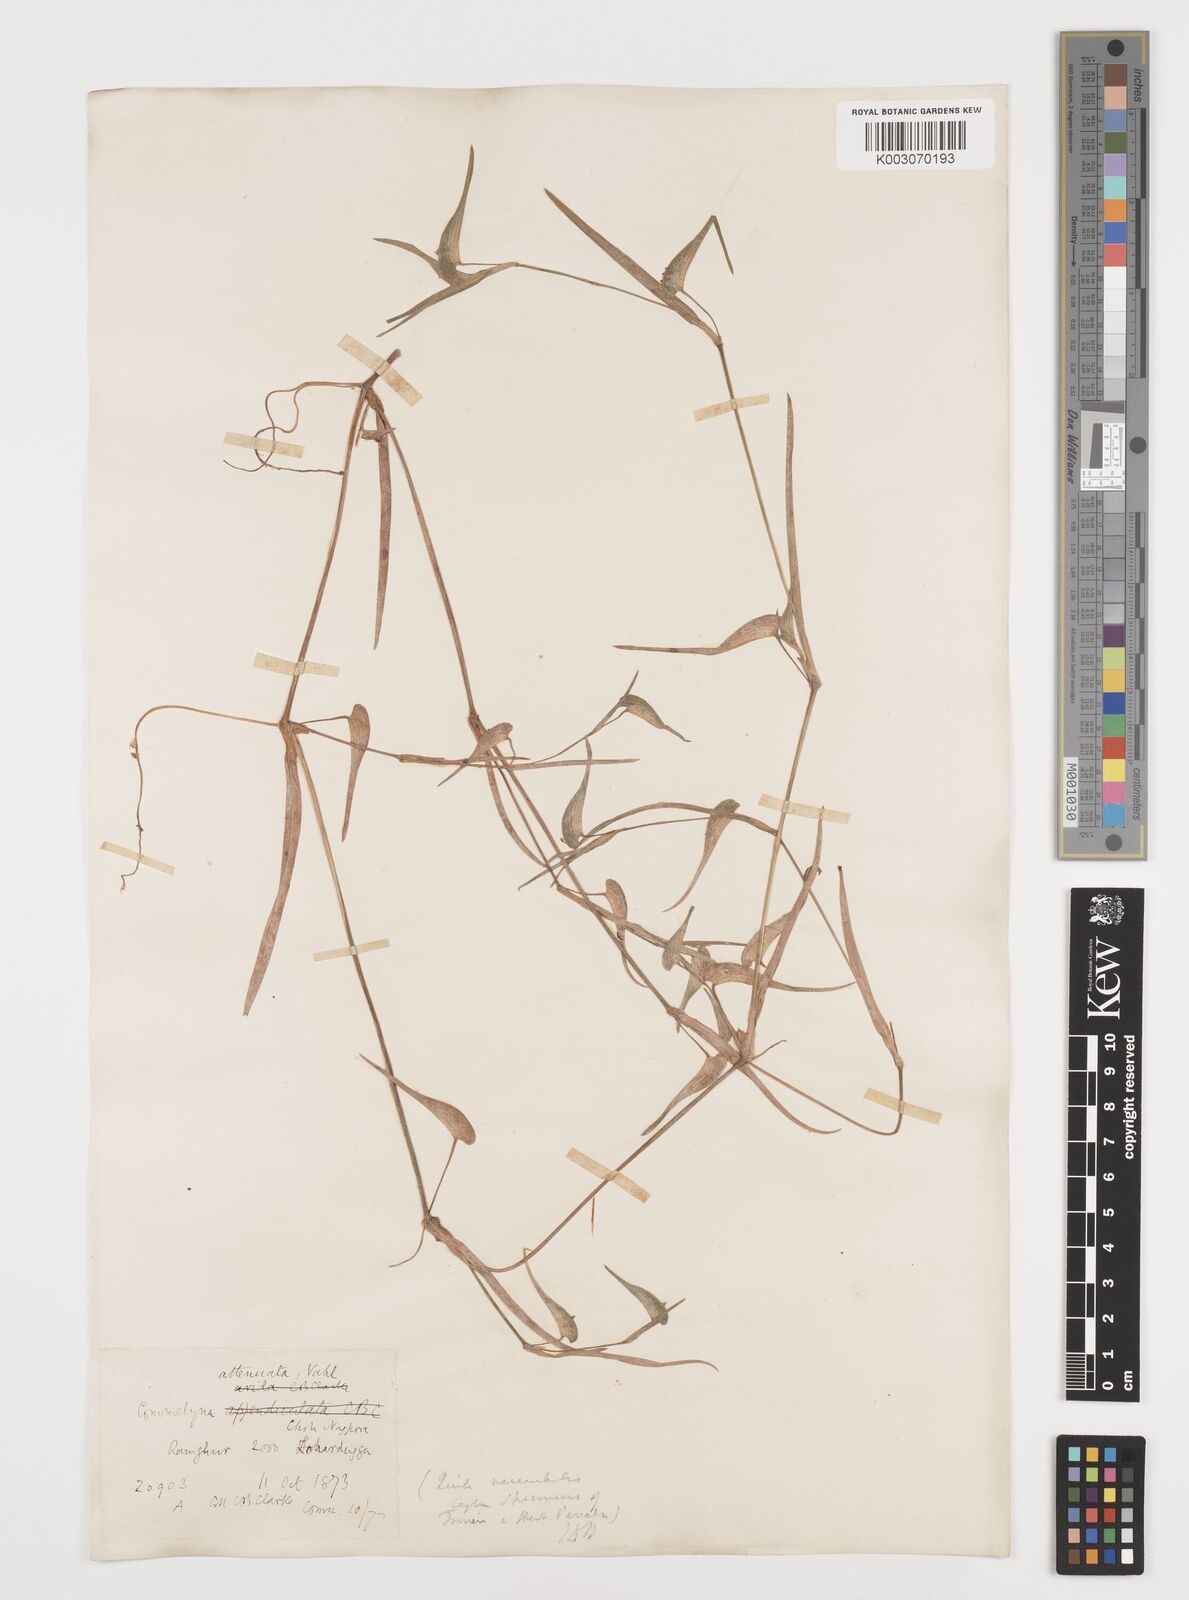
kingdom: Plantae
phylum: Tracheophyta
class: Liliopsida
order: Commelinales
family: Commelinaceae
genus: Commelina
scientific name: Commelina attenuata
